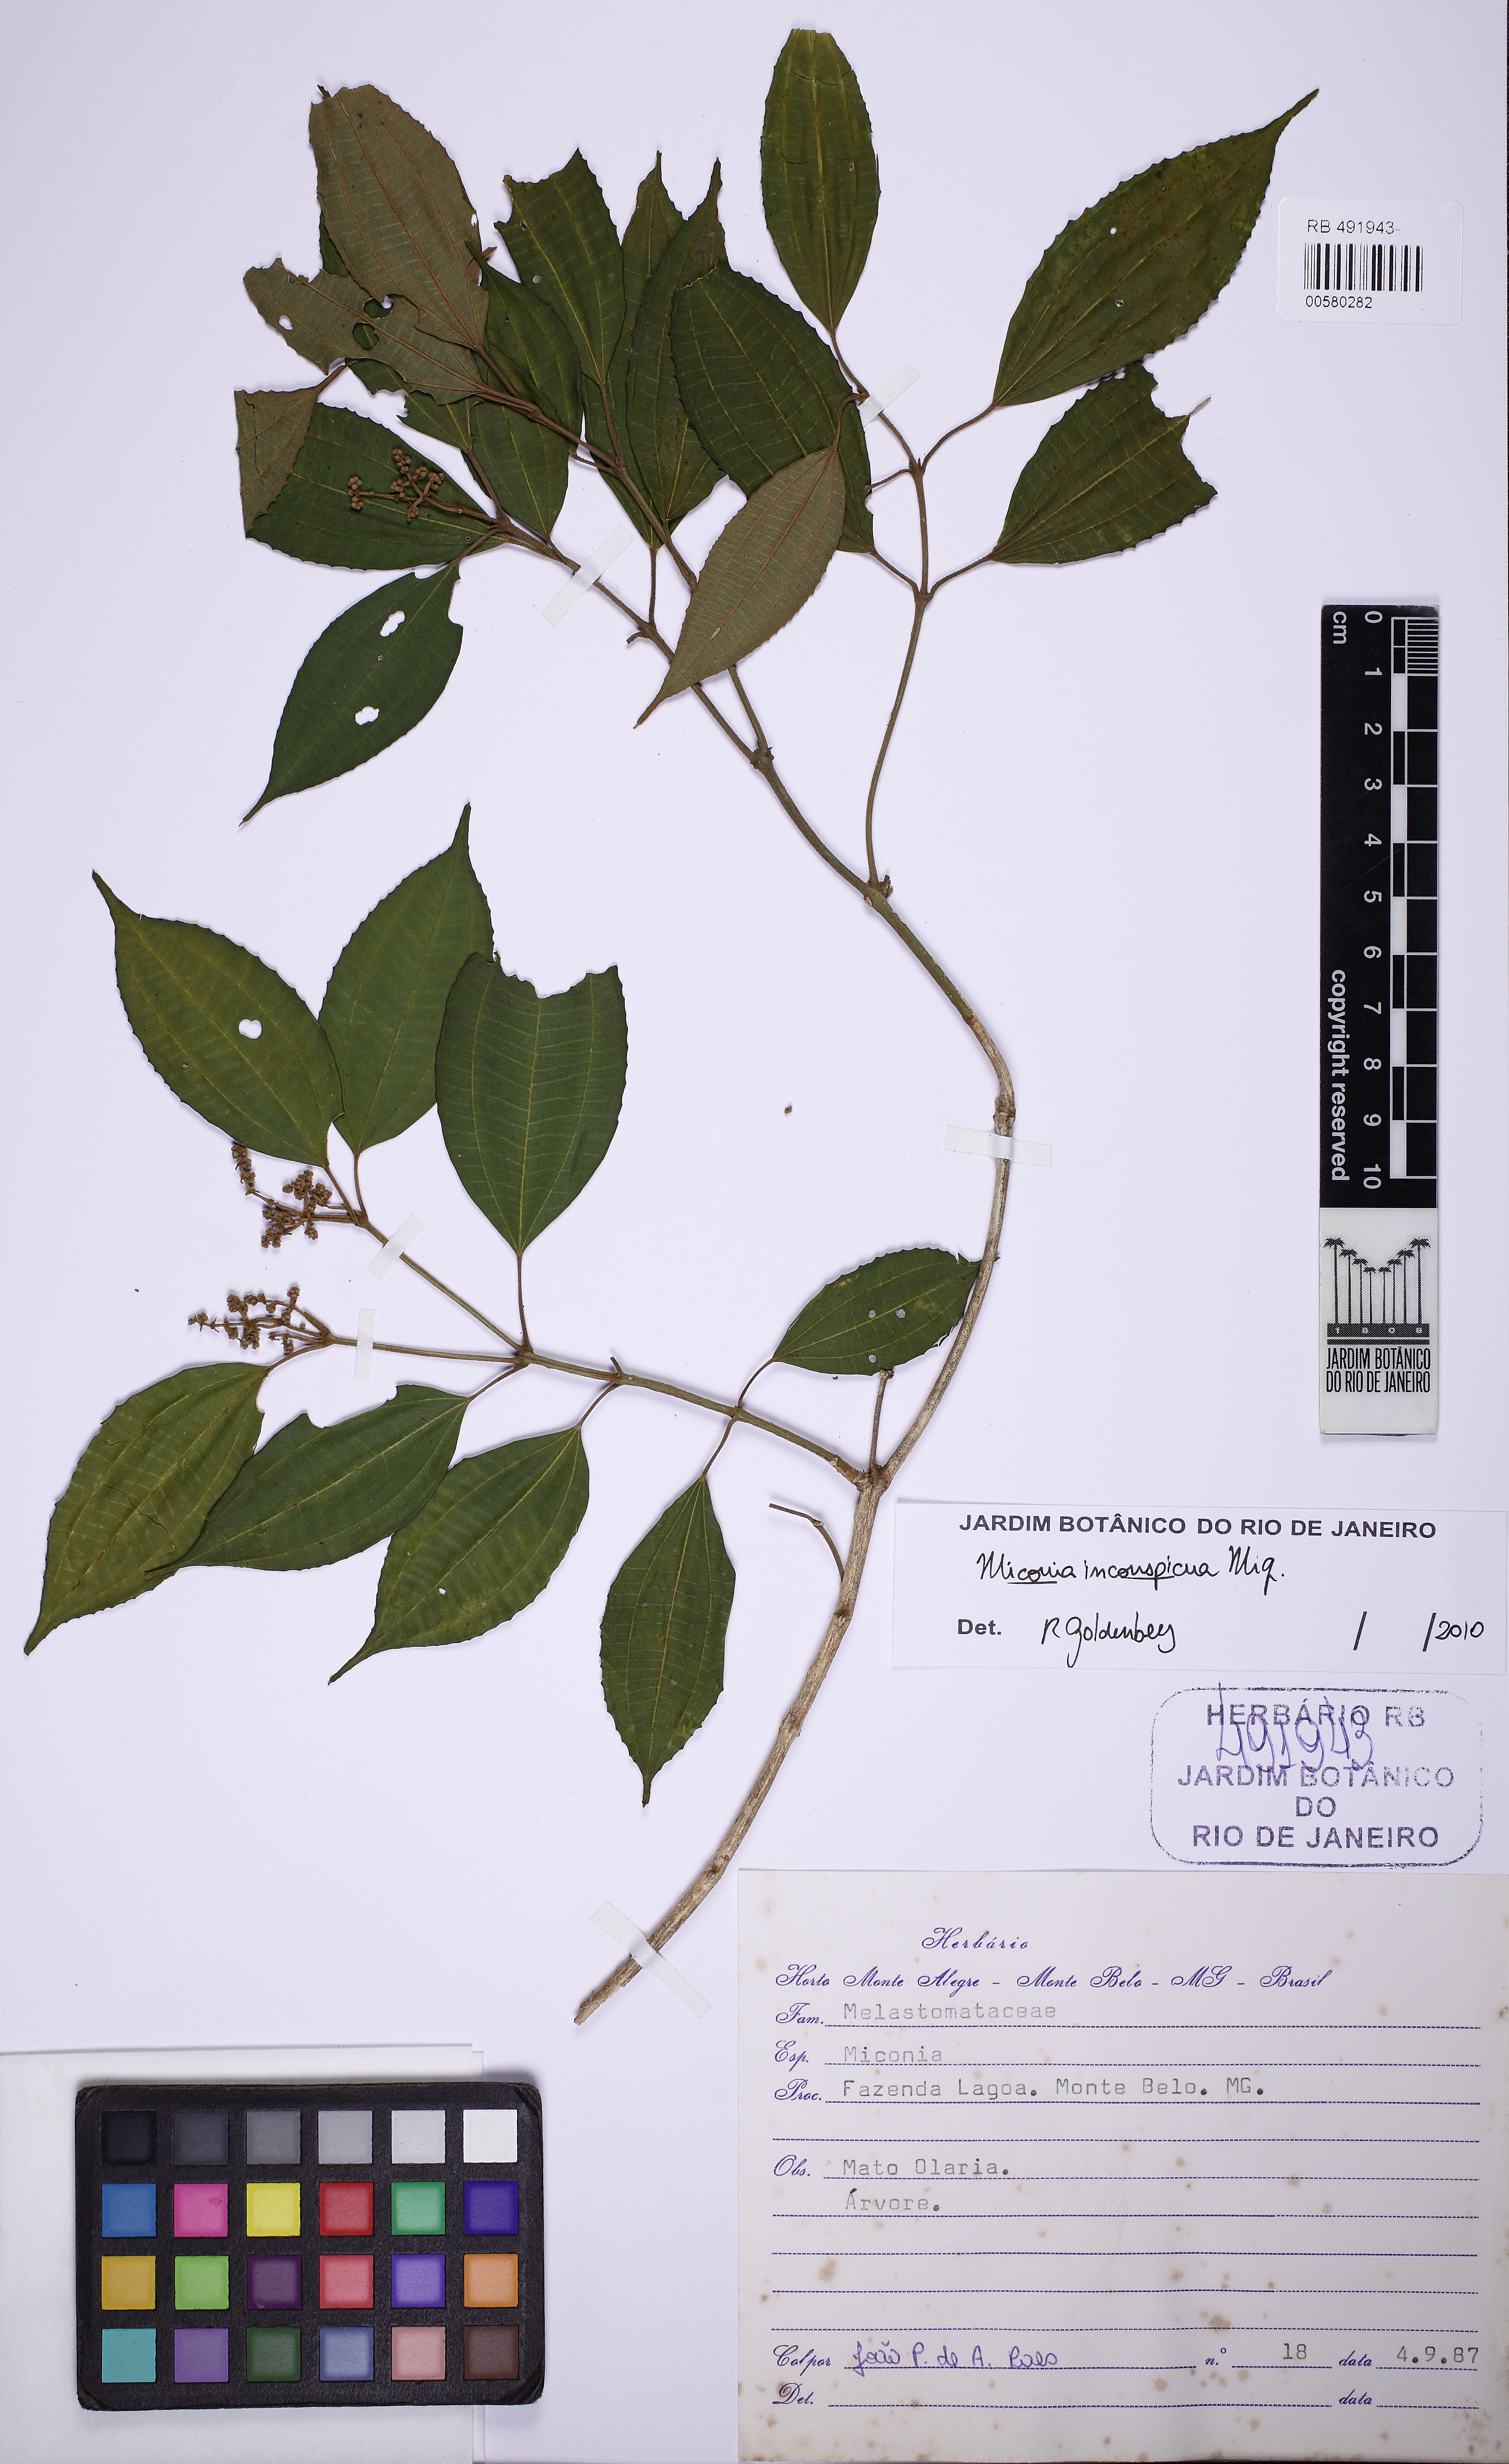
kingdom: Plantae
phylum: Tracheophyta
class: Magnoliopsida
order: Myrtales
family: Melastomataceae
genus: Miconia
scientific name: Miconia inconspicua
